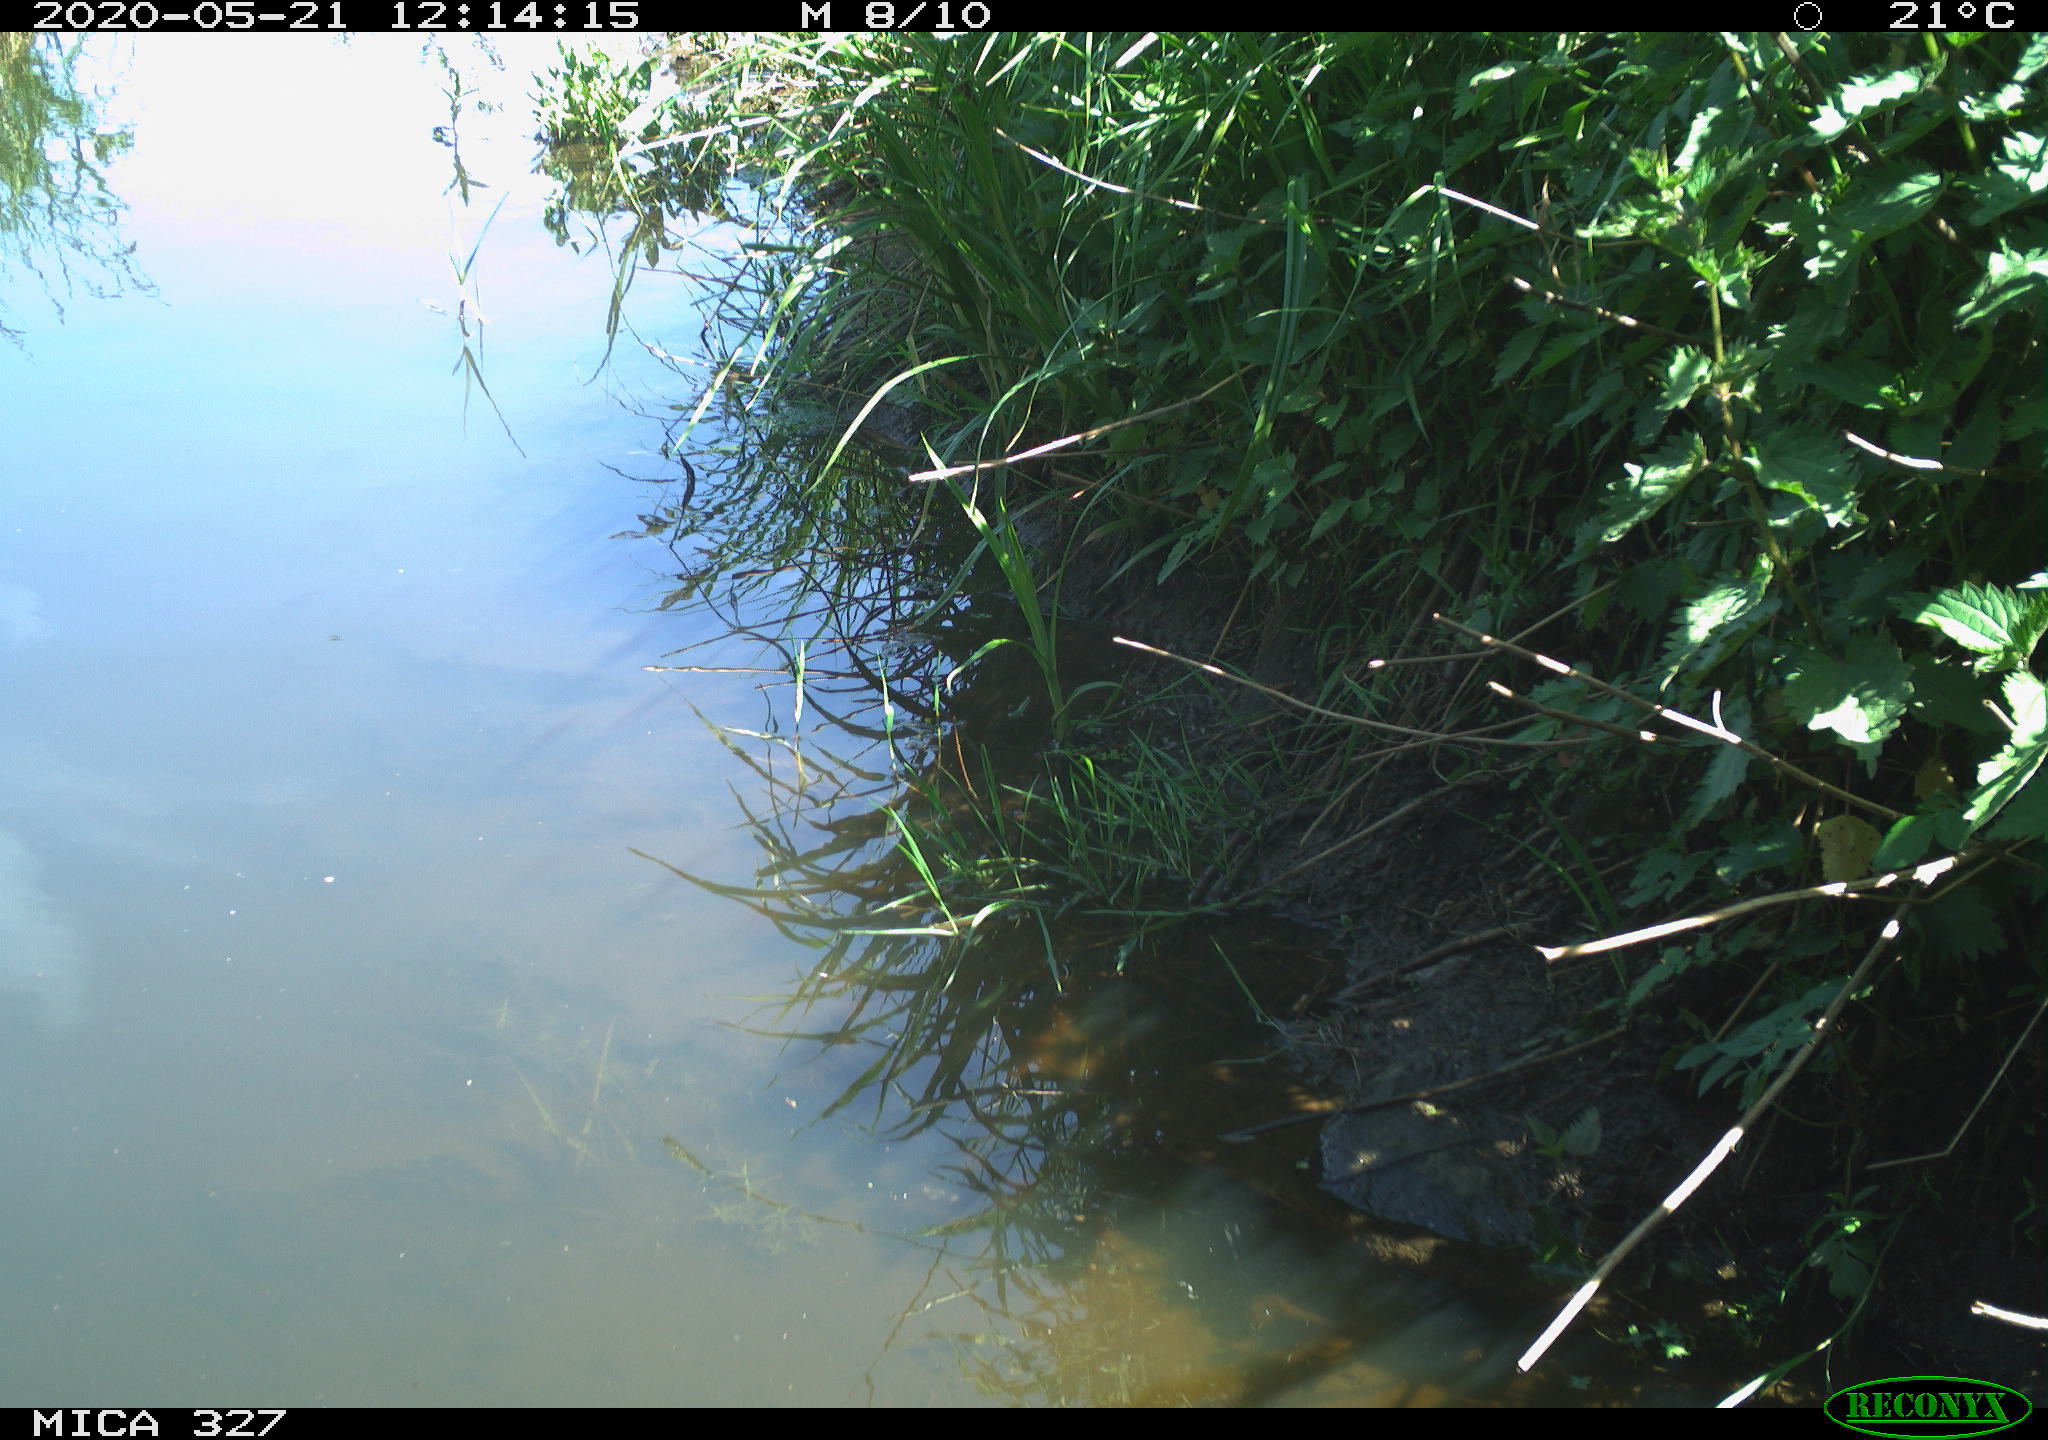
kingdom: Animalia
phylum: Chordata
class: Mammalia
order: Rodentia
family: Muridae
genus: Rattus
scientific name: Rattus norvegicus
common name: Brown rat
